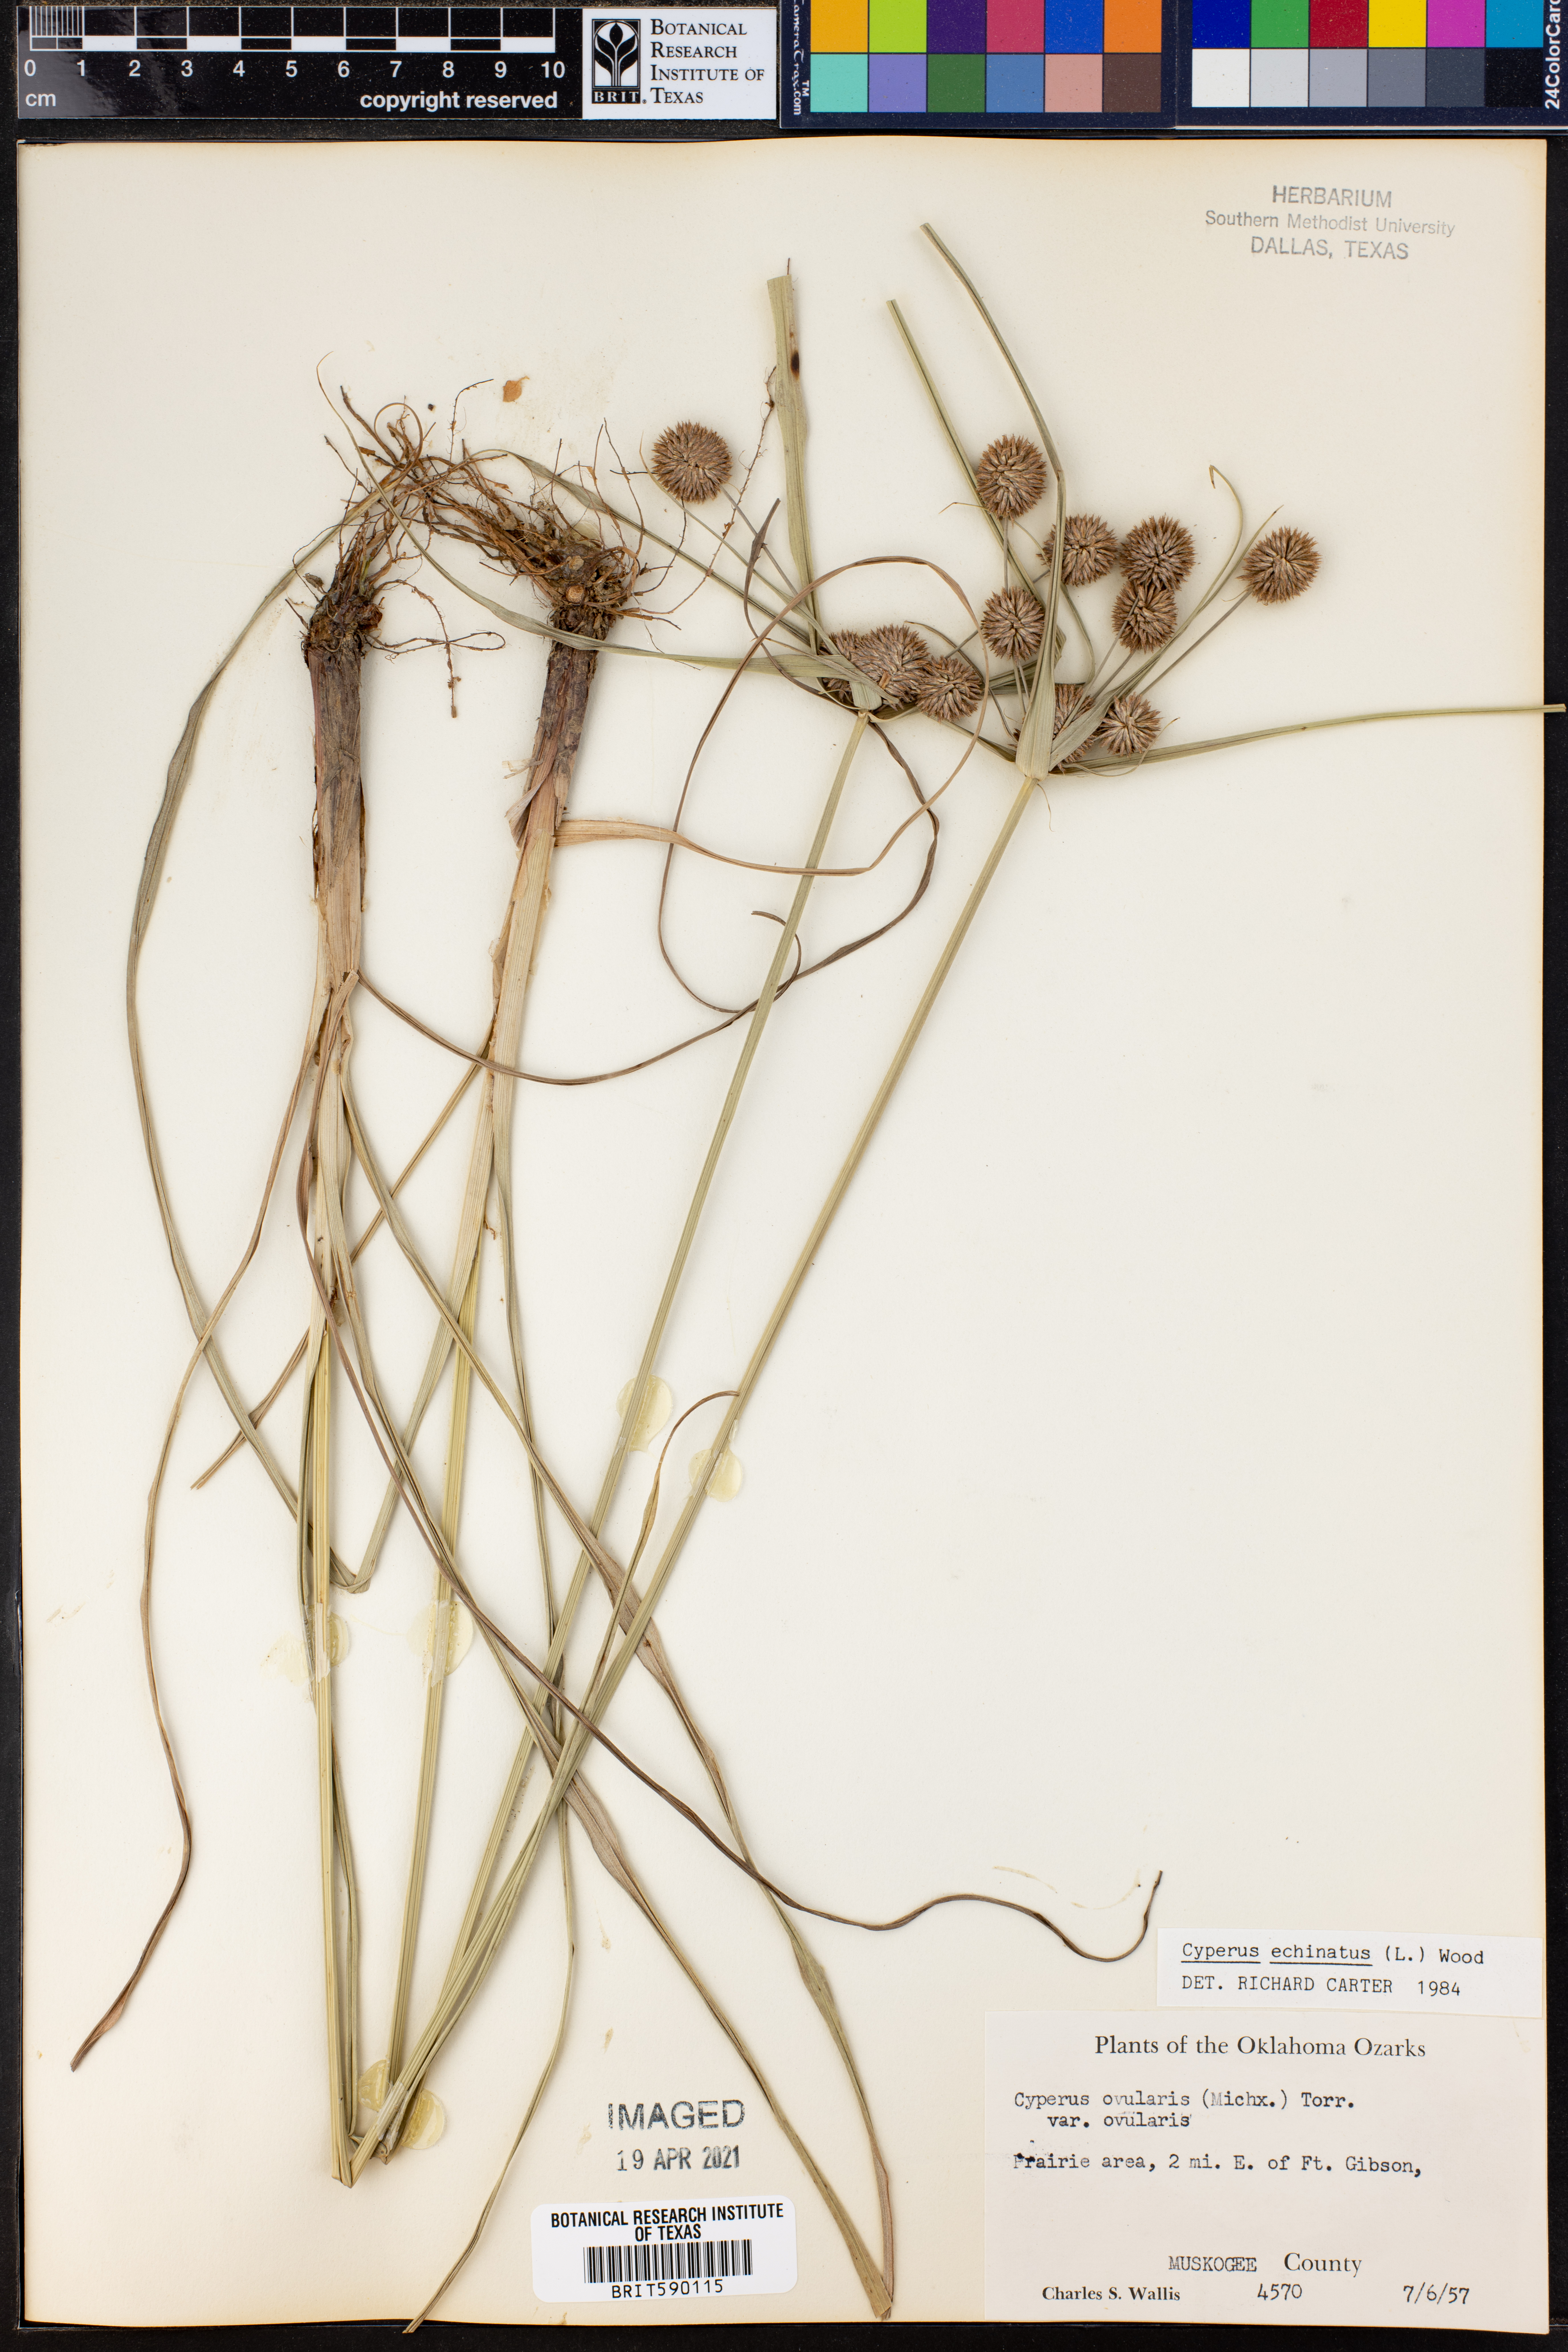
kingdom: Plantae
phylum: Tracheophyta
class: Liliopsida
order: Poales
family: Cyperaceae
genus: Cyperus
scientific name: Cyperus echinatus
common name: Teasel sedge
